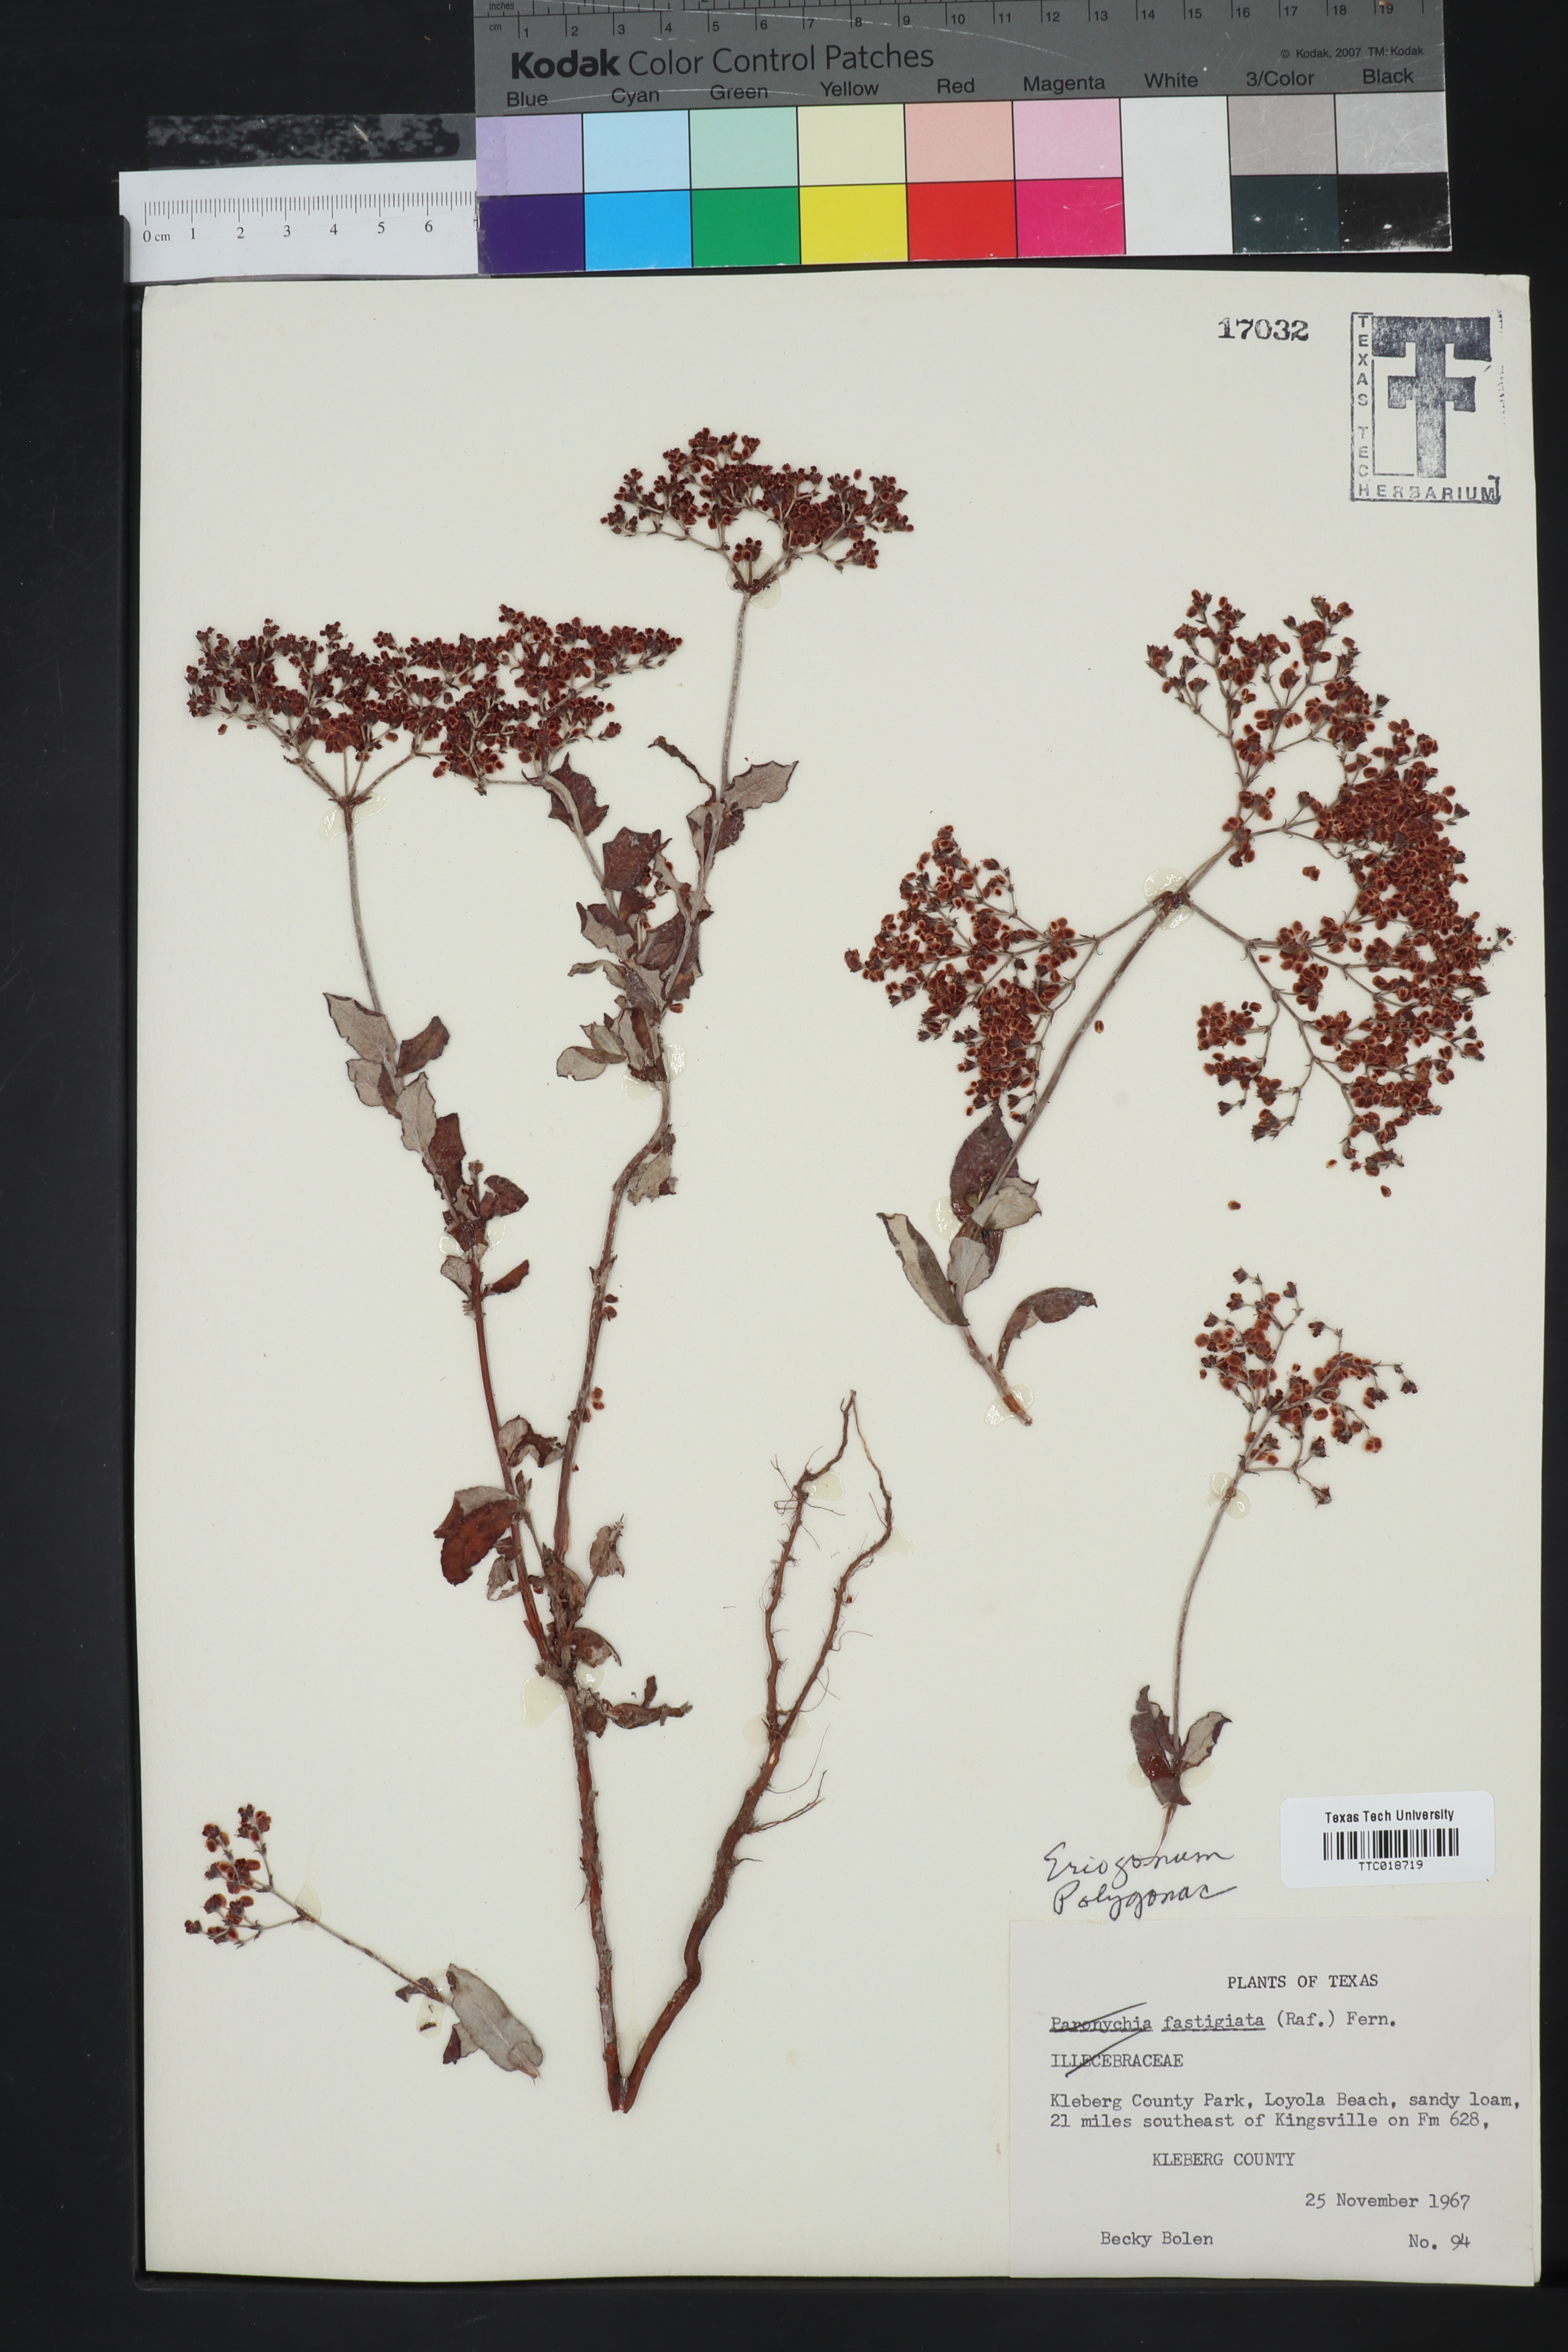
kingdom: Plantae
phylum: Tracheophyta
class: Magnoliopsida
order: Caryophyllales
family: Polygonaceae
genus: Eriogonum
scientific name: Eriogonum
